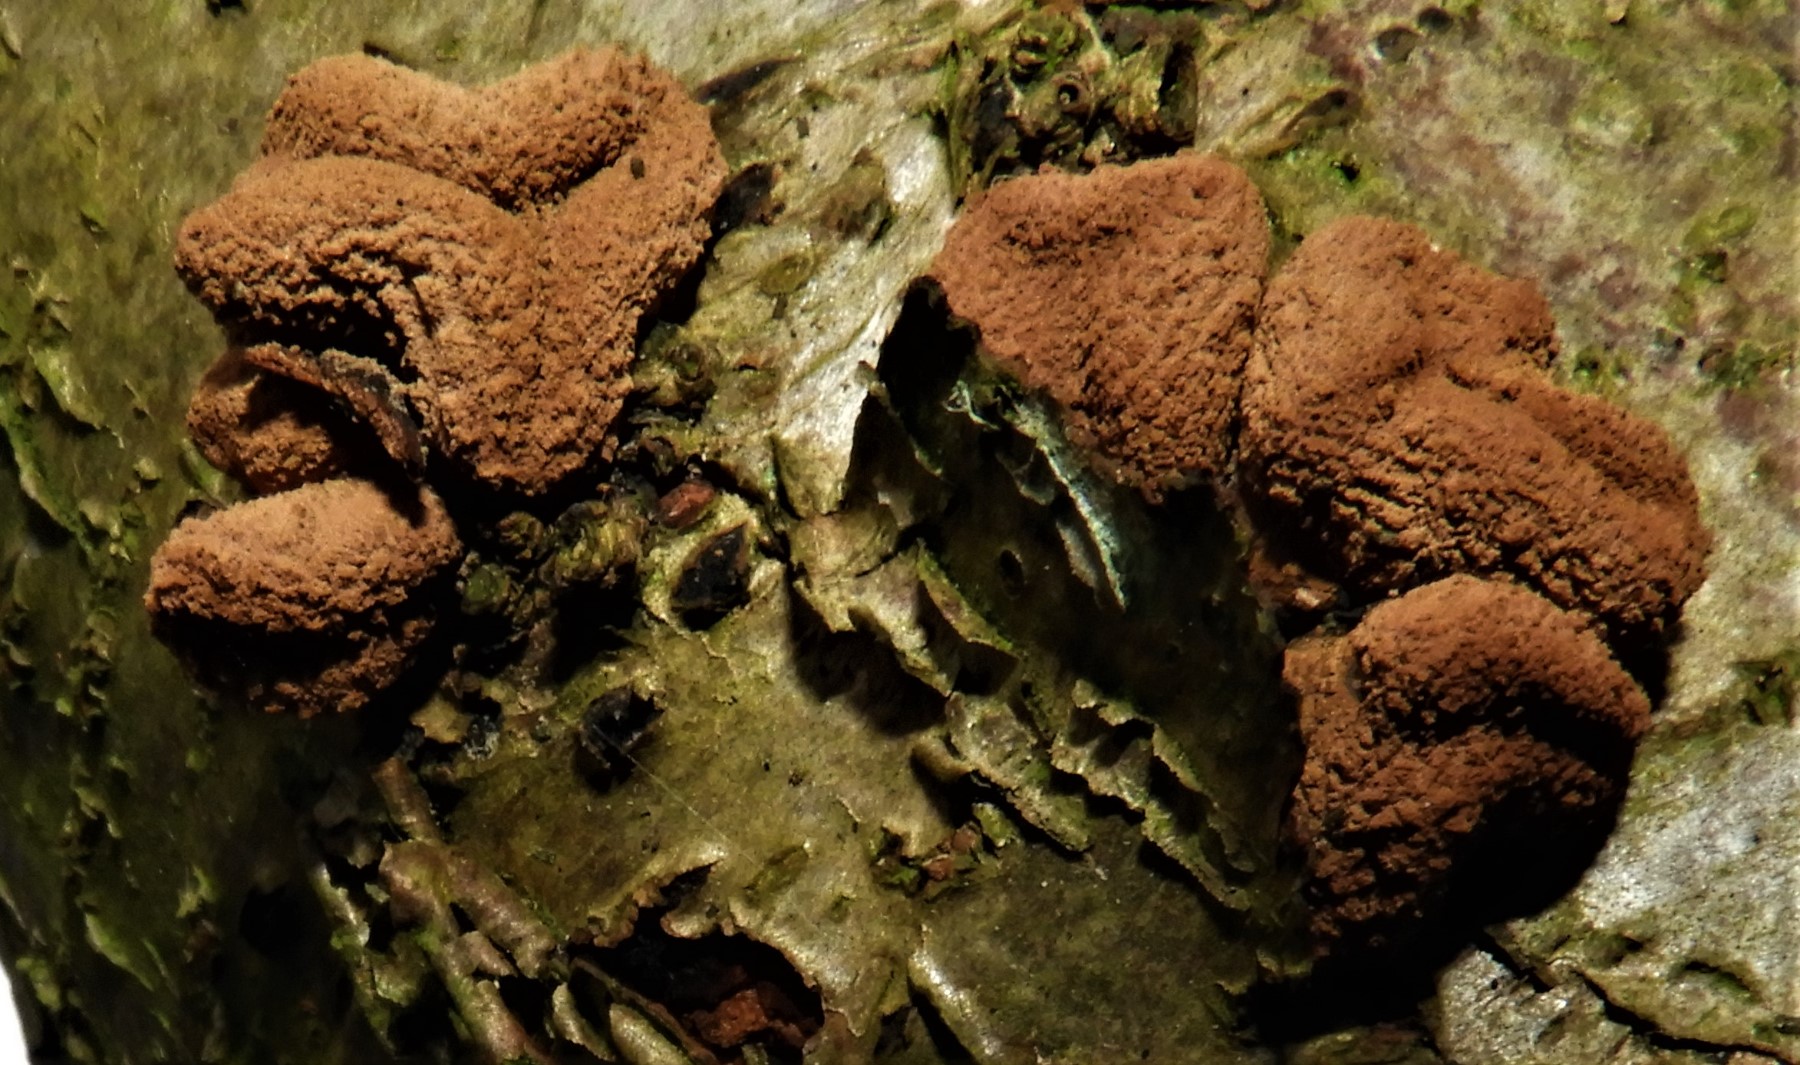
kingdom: Fungi
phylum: Ascomycota
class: Leotiomycetes
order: Helotiales
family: Cenangiaceae
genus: Encoelia
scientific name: Encoelia furfuracea
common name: hassel-læderskive
